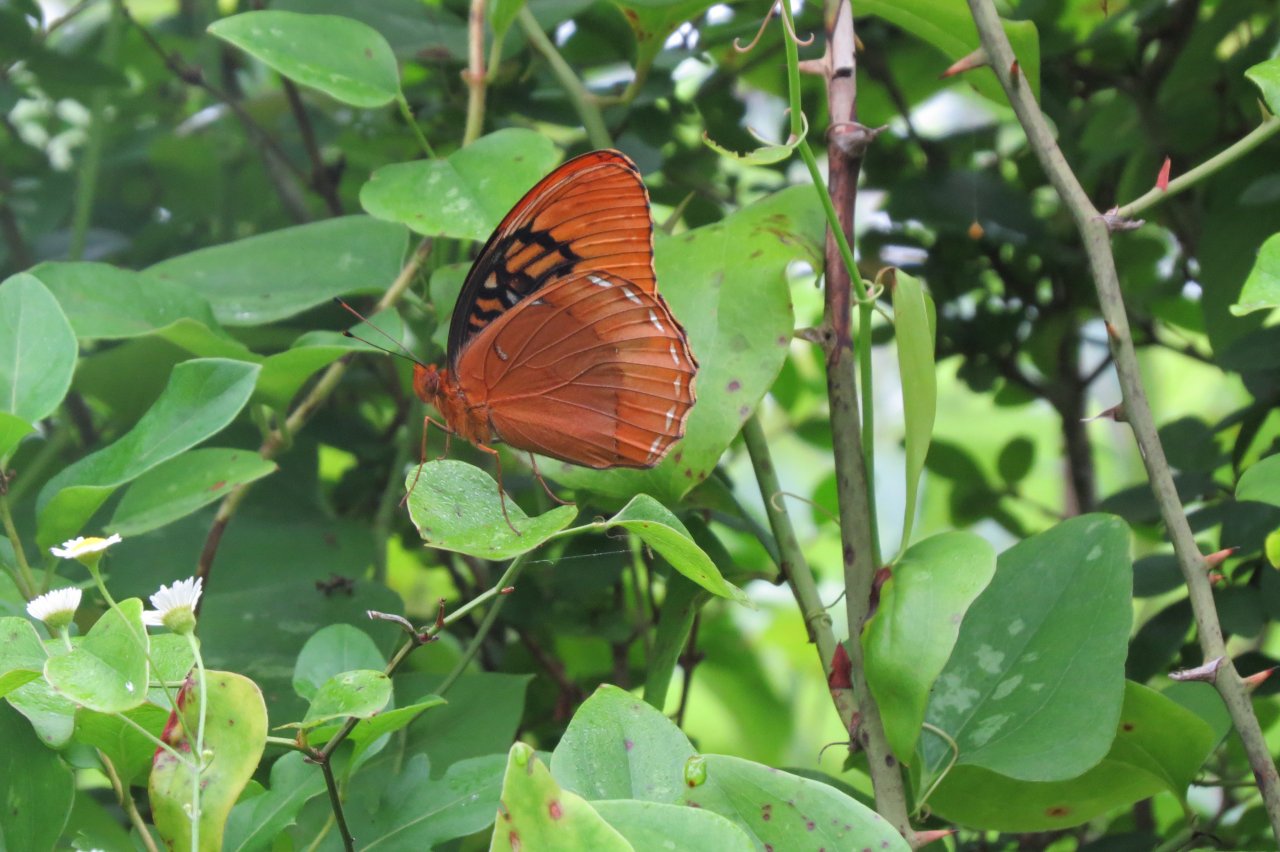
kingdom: Animalia
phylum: Arthropoda
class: Insecta
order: Lepidoptera
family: Nymphalidae
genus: Speyeria
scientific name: Speyeria diana
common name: Diana Fritillary
